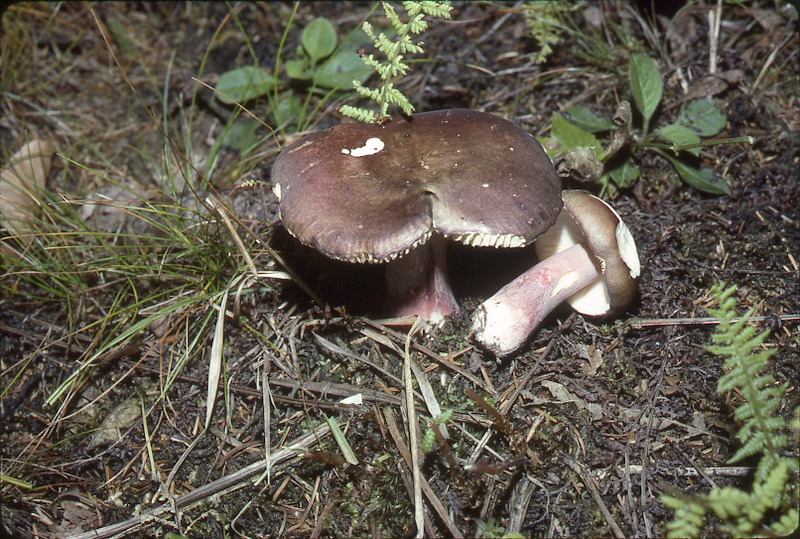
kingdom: Fungi
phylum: Basidiomycota
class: Agaricomycetes
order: Russulales
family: Russulaceae
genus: Russula
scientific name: Russula queletii
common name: Fruity brittlegill
